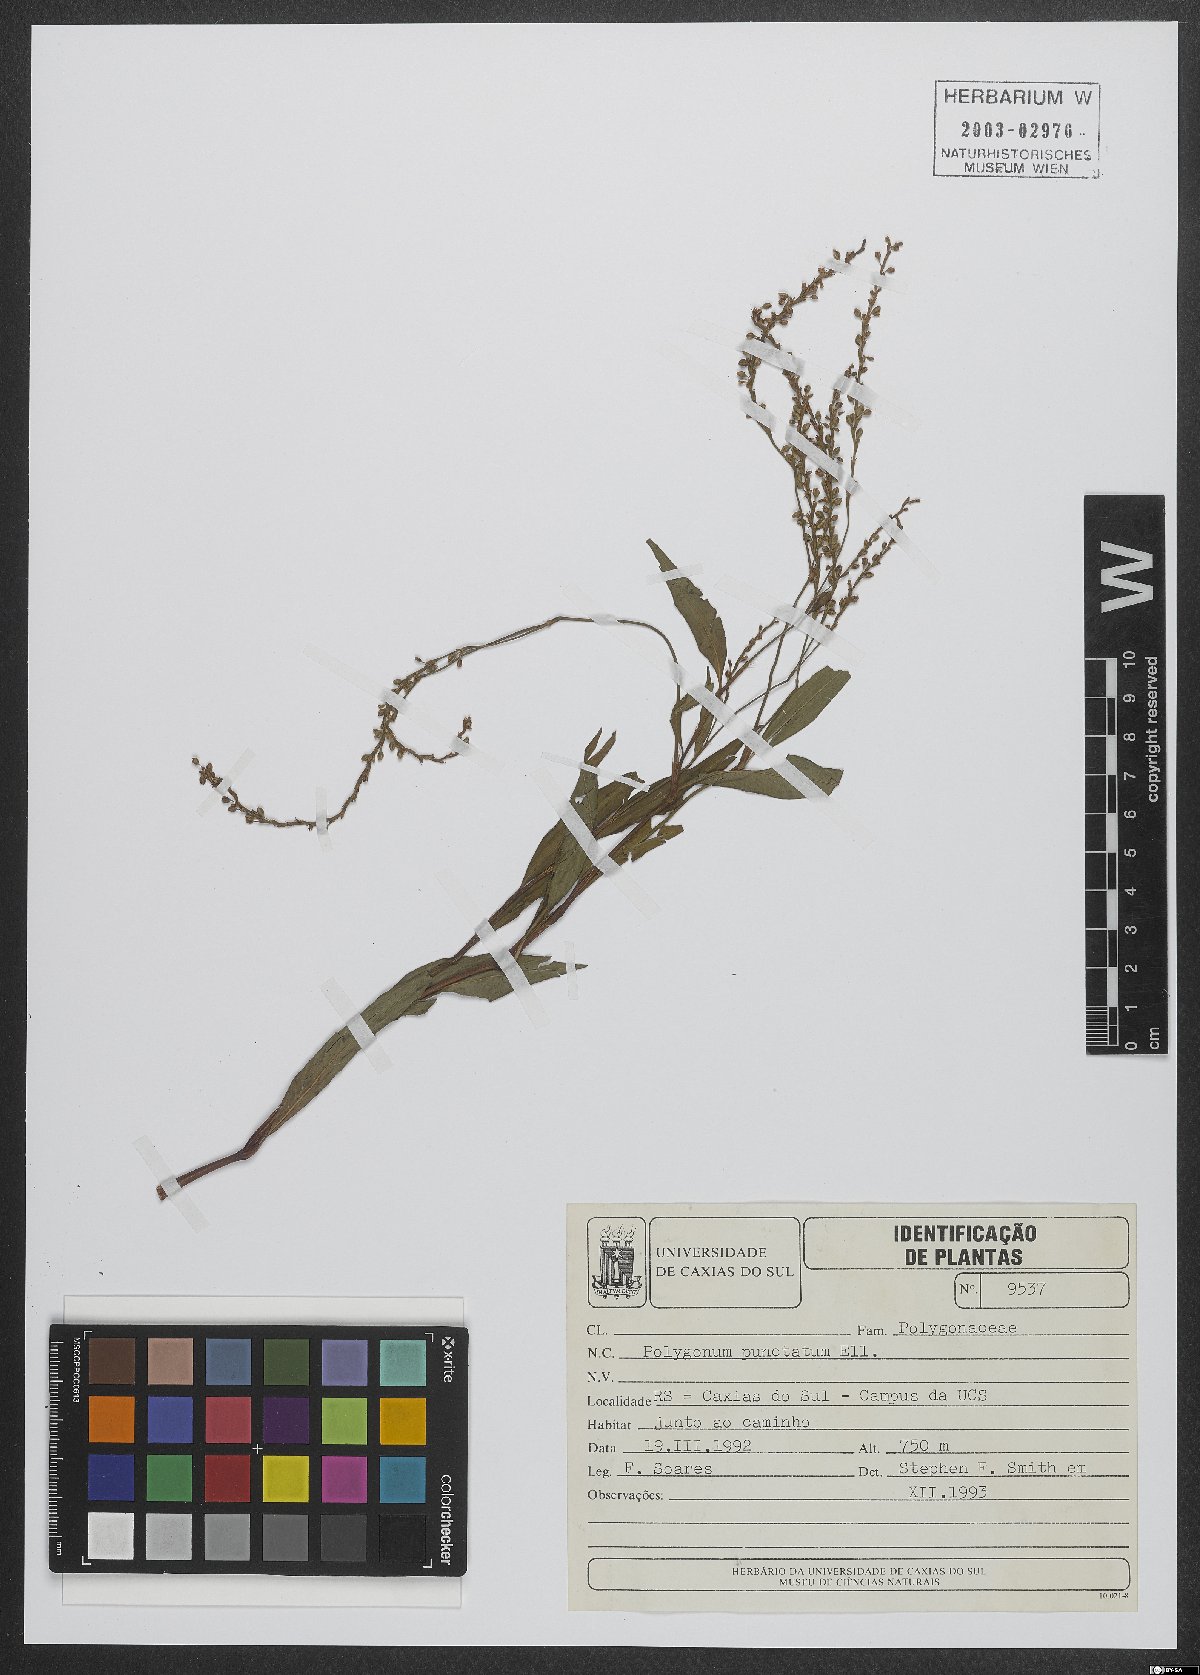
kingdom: Plantae
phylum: Tracheophyta
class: Magnoliopsida
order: Caryophyllales
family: Polygonaceae
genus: Persicaria
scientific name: Persicaria punctata
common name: Dotted smartweed
